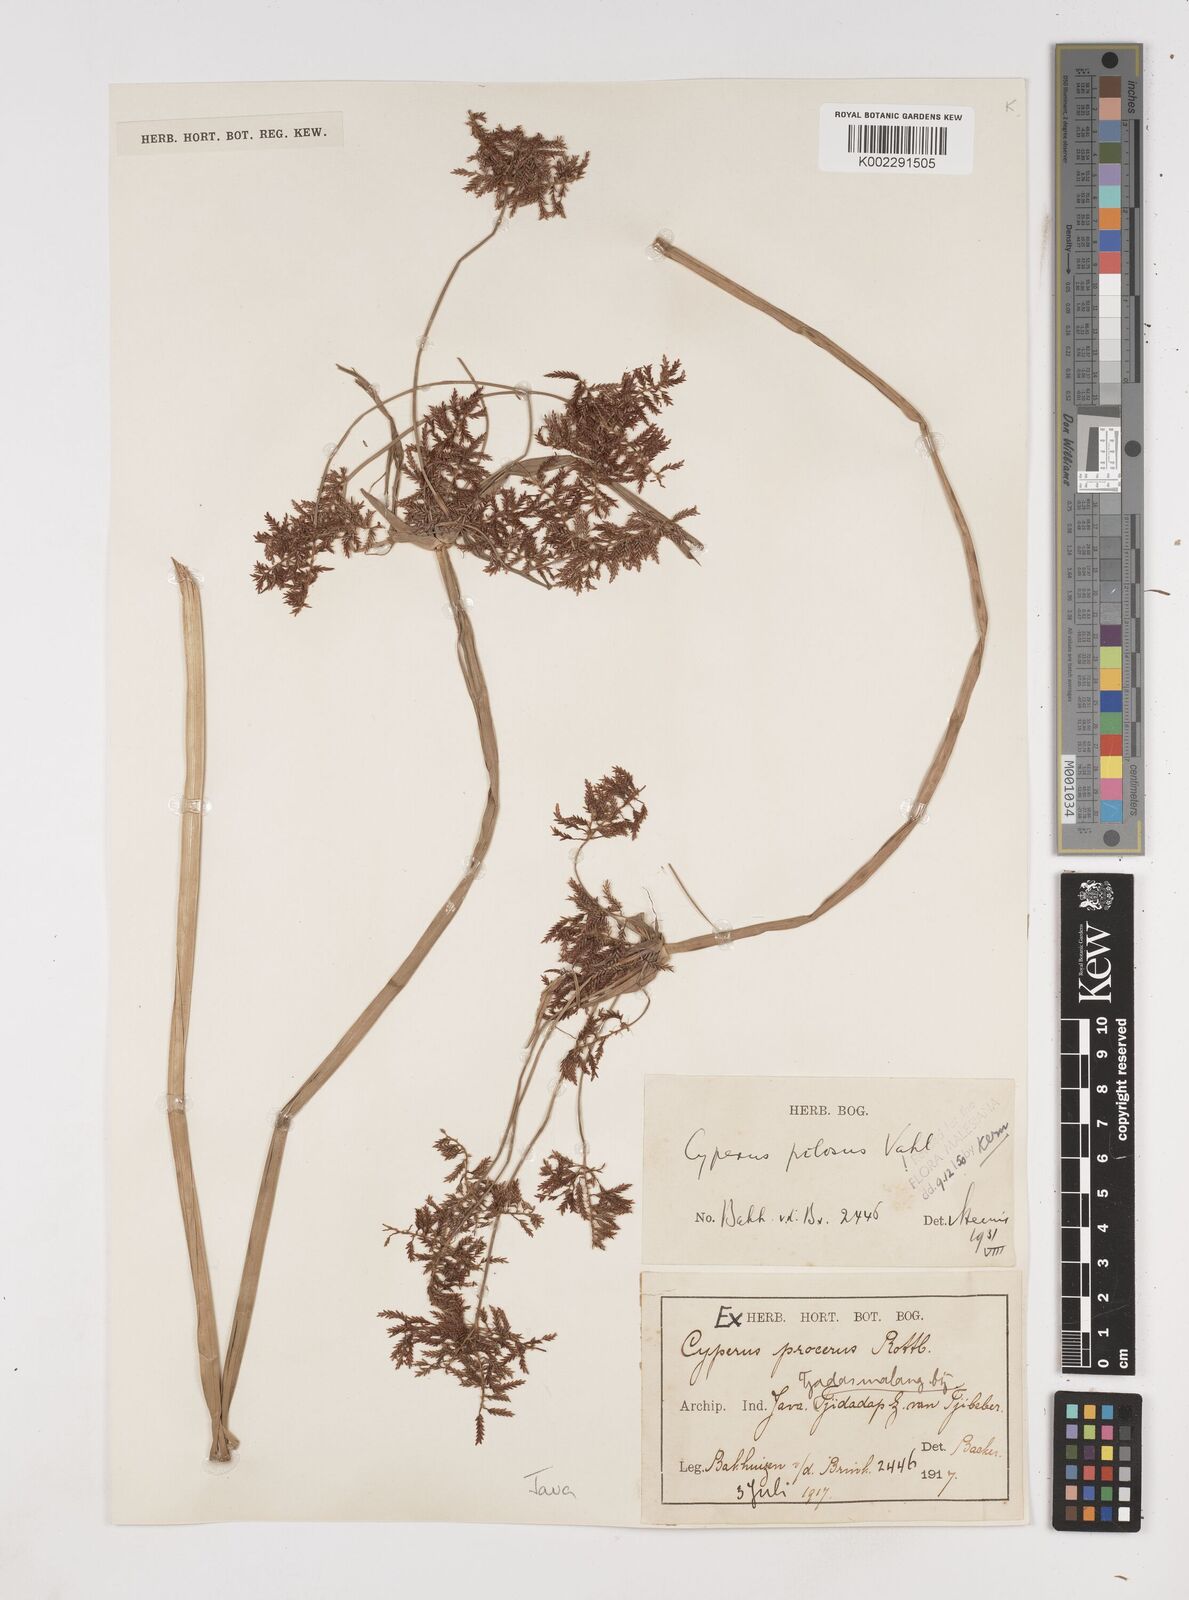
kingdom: Plantae
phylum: Tracheophyta
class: Liliopsida
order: Poales
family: Cyperaceae
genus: Cyperus
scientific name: Cyperus pilosus
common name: Fuzzy flatsedge
